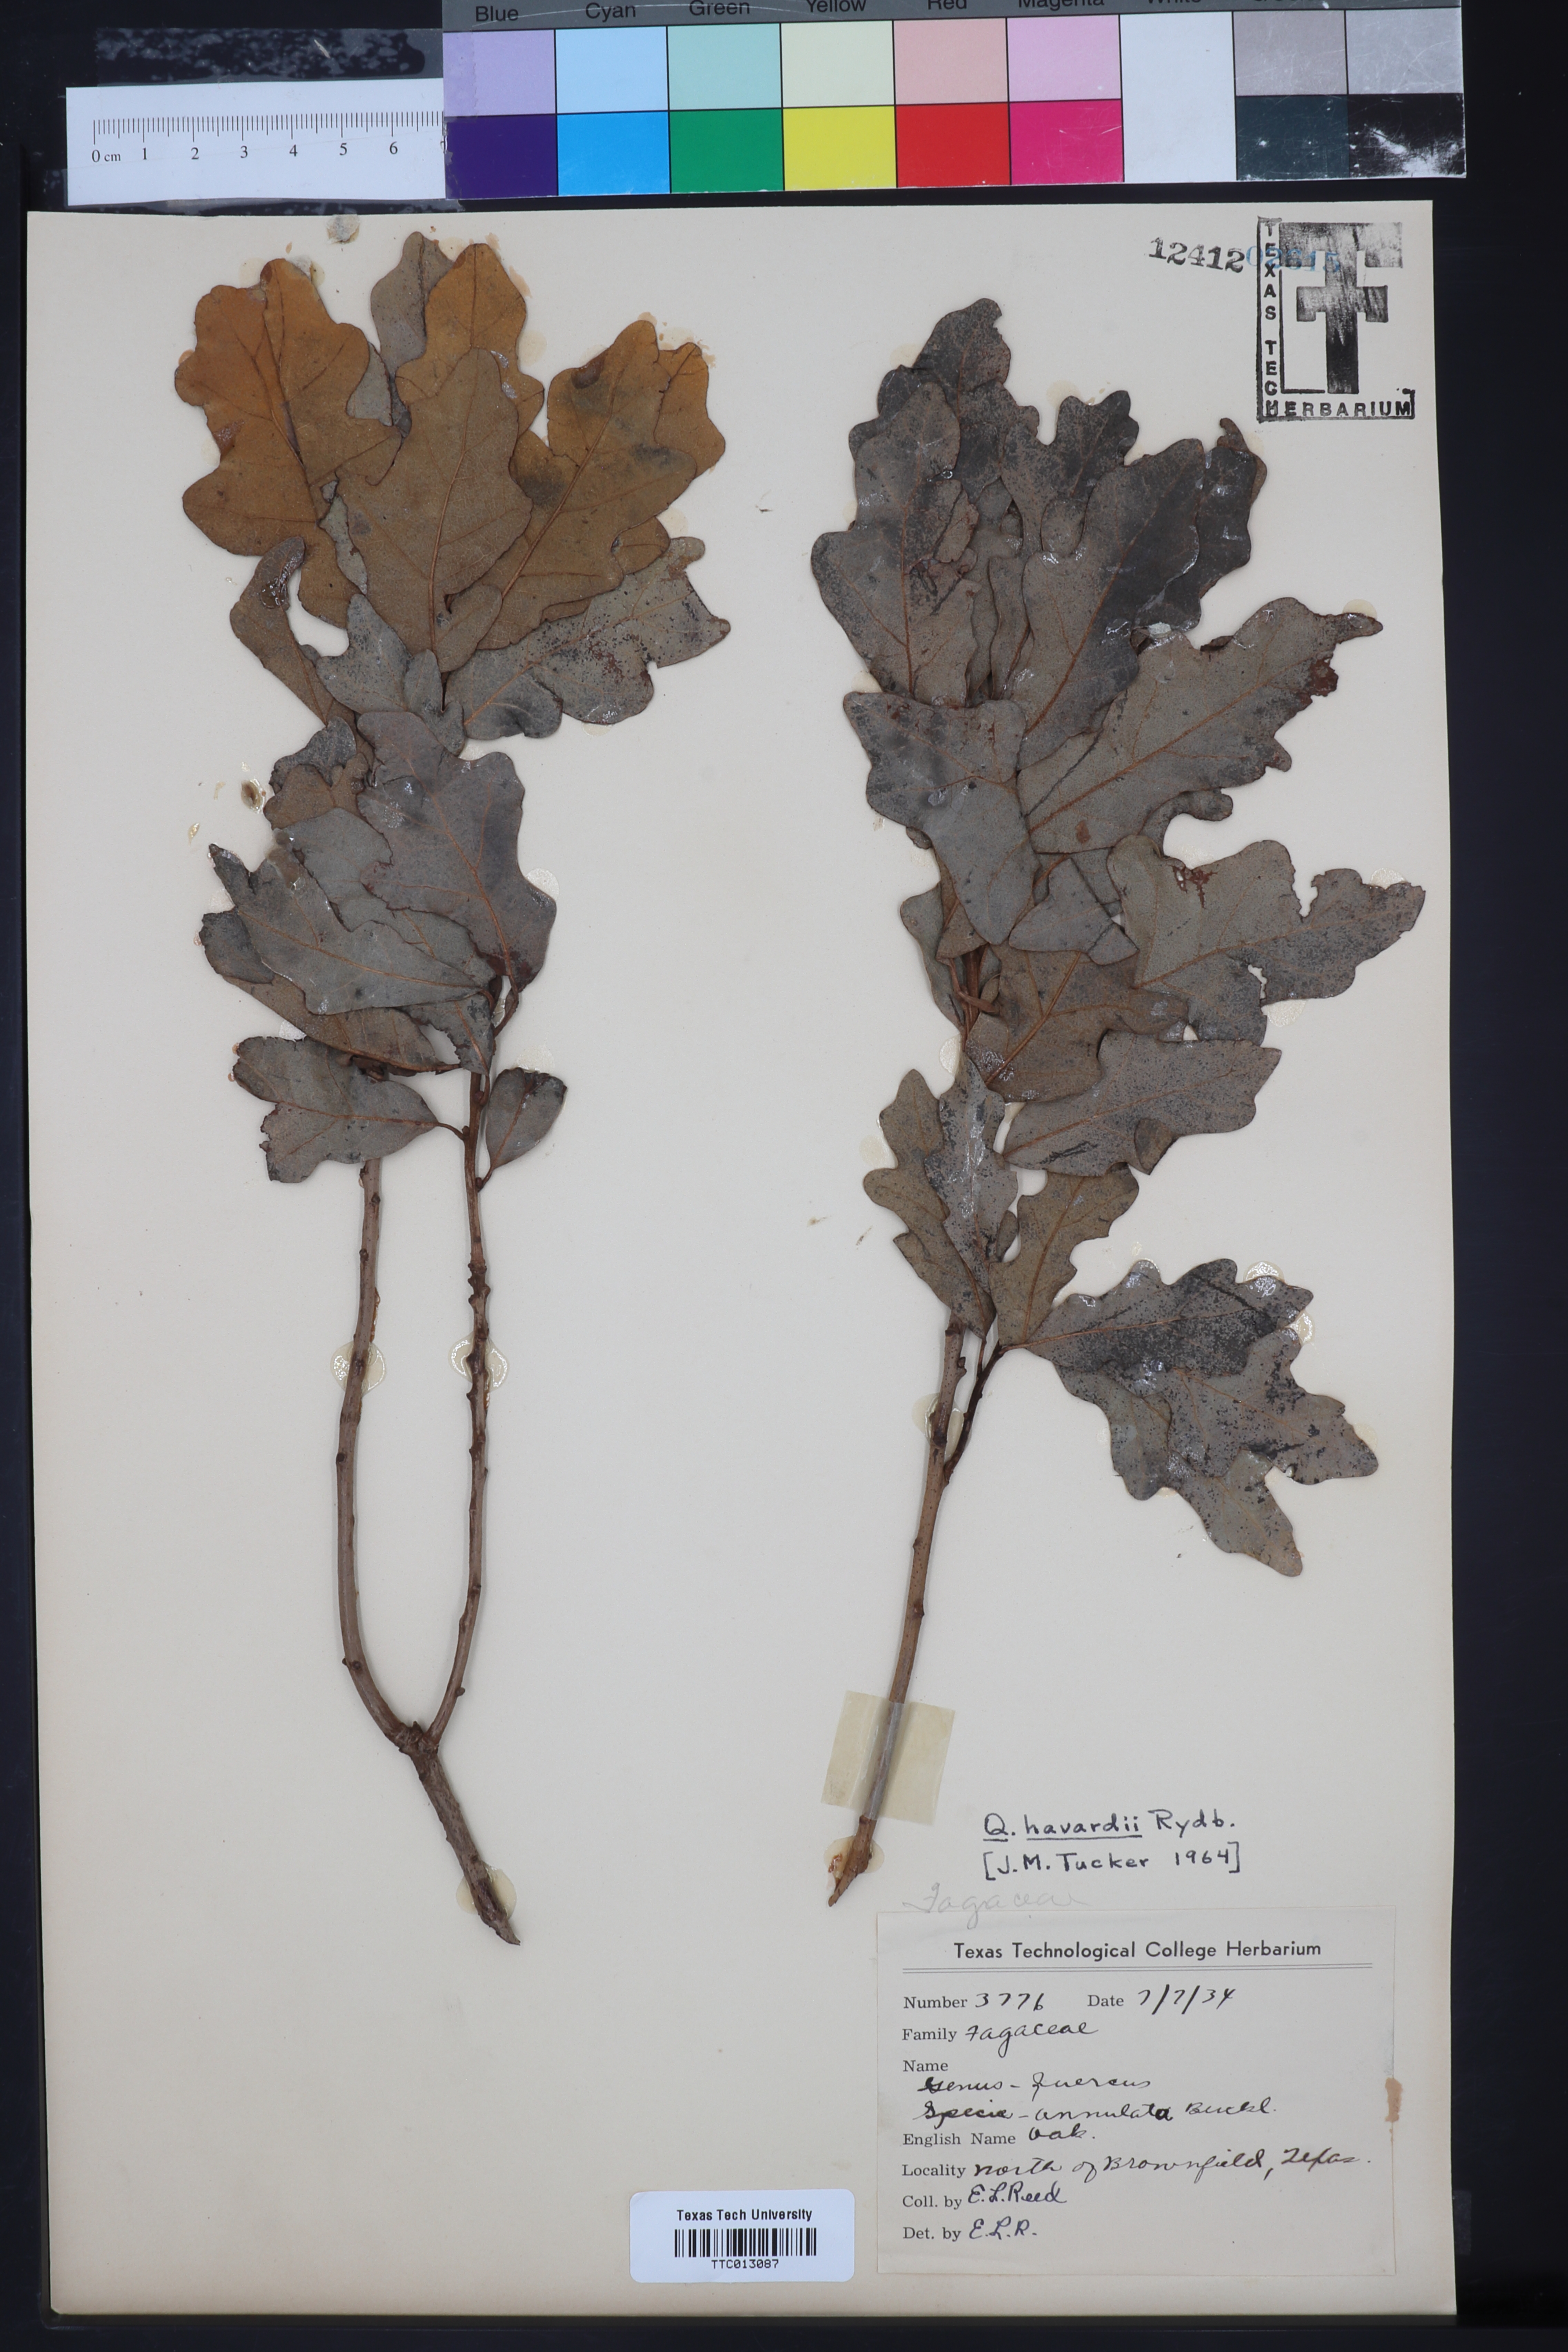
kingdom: Plantae
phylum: Tracheophyta
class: Magnoliopsida
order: Fagales
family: Fagaceae
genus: Quercus
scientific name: Quercus havardii
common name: Shinnery oak
